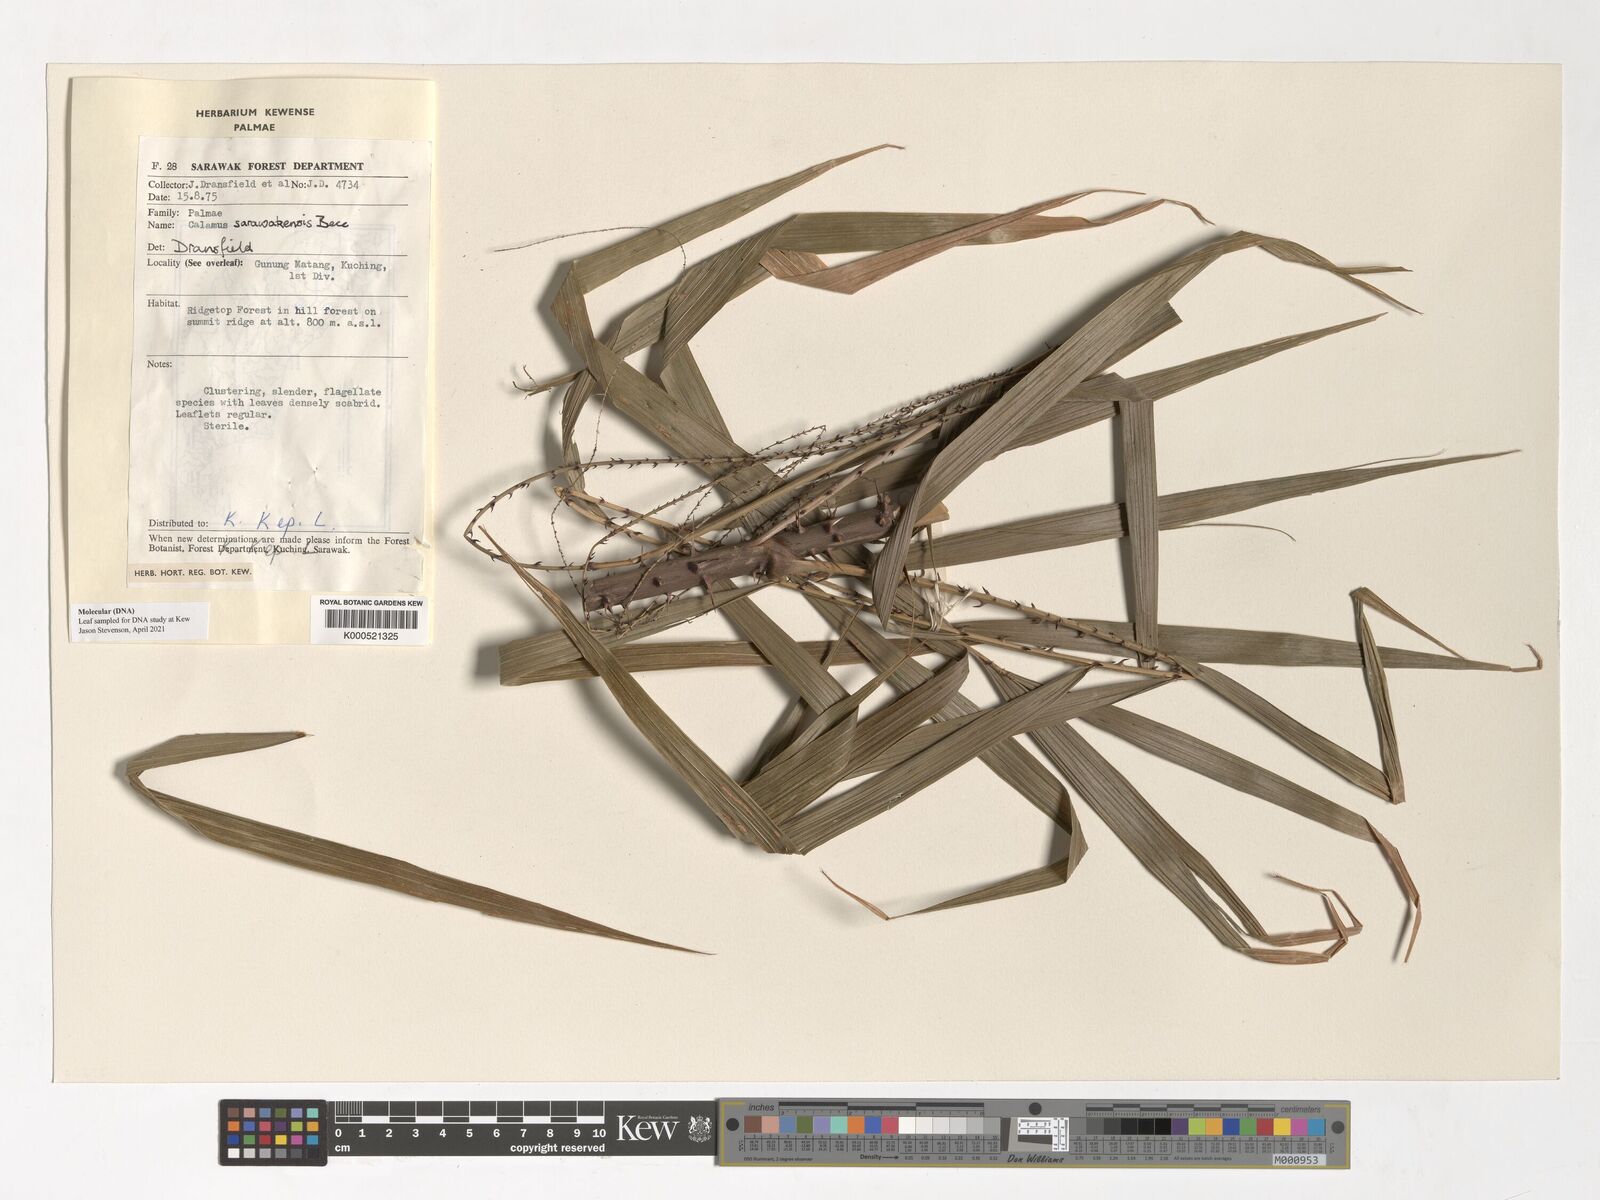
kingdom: Plantae
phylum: Tracheophyta
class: Liliopsida
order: Arecales
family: Arecaceae
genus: Calamus
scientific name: Calamus sarawakensis
